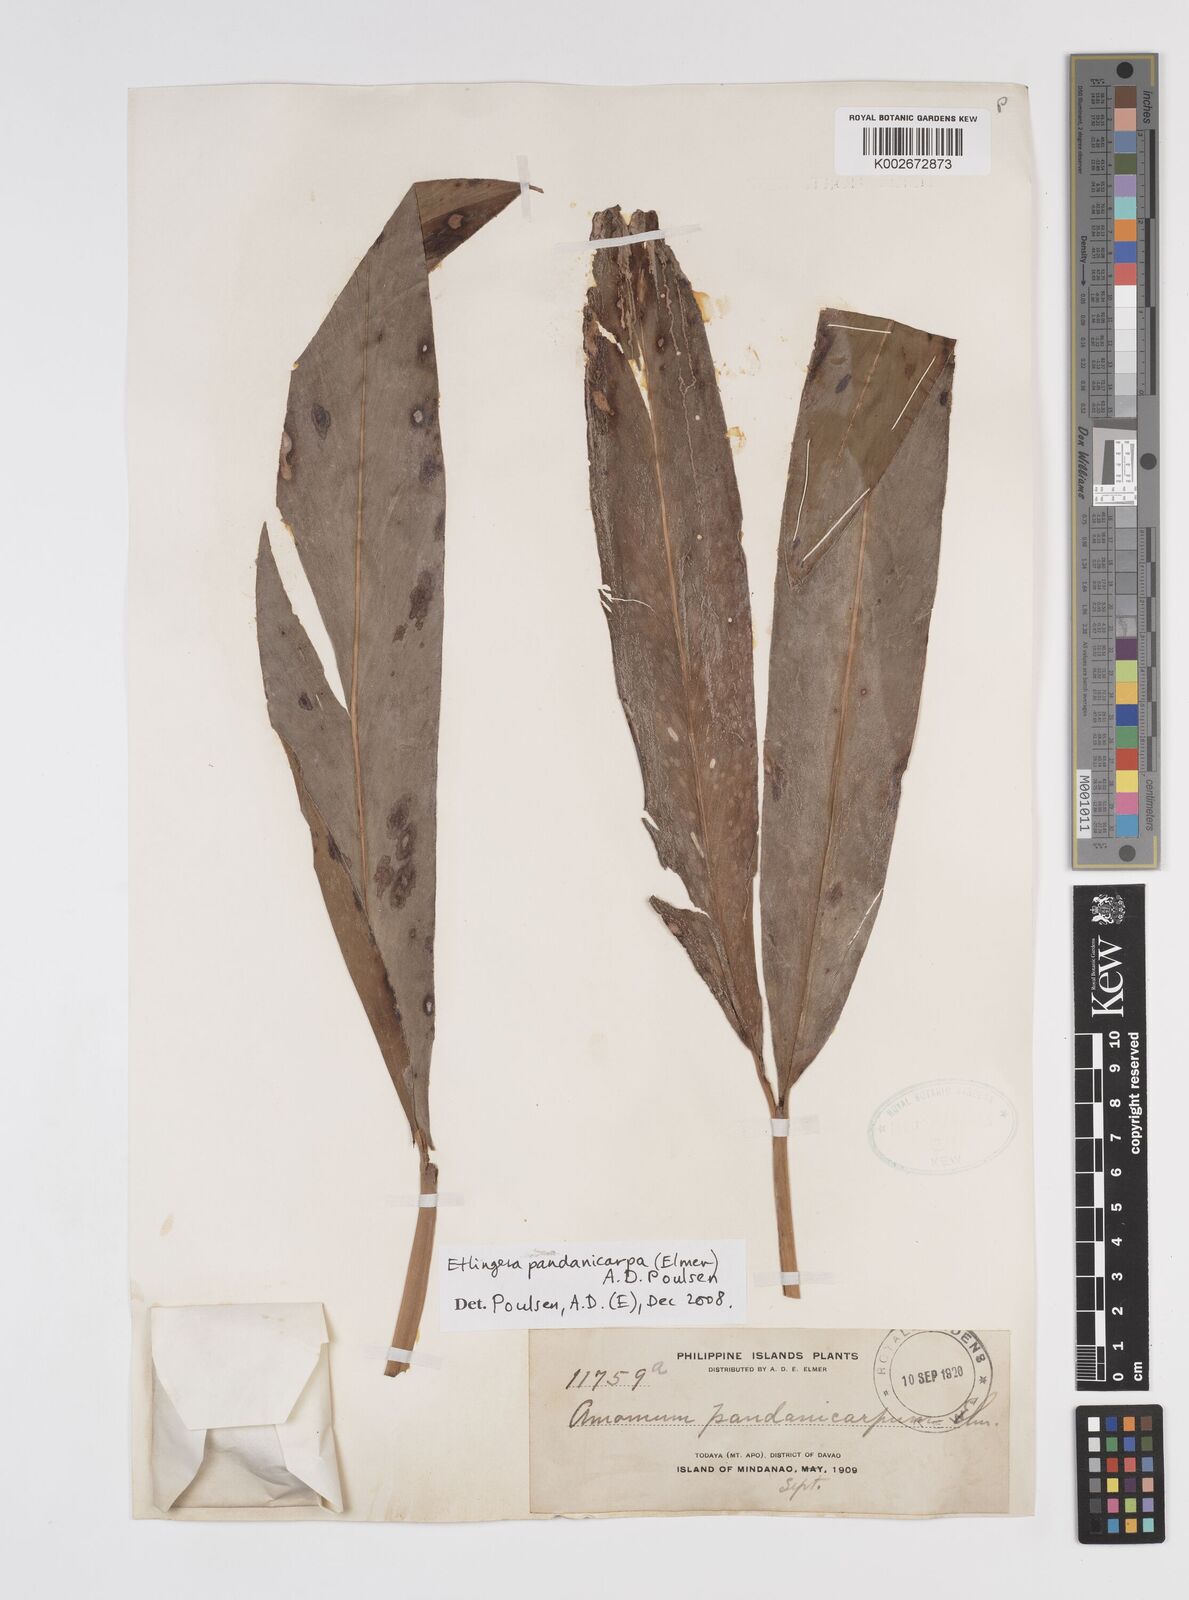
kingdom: Plantae
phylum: Tracheophyta
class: Liliopsida
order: Zingiberales
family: Zingiberaceae
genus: Etlingera
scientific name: Etlingera fimbriobracteata
